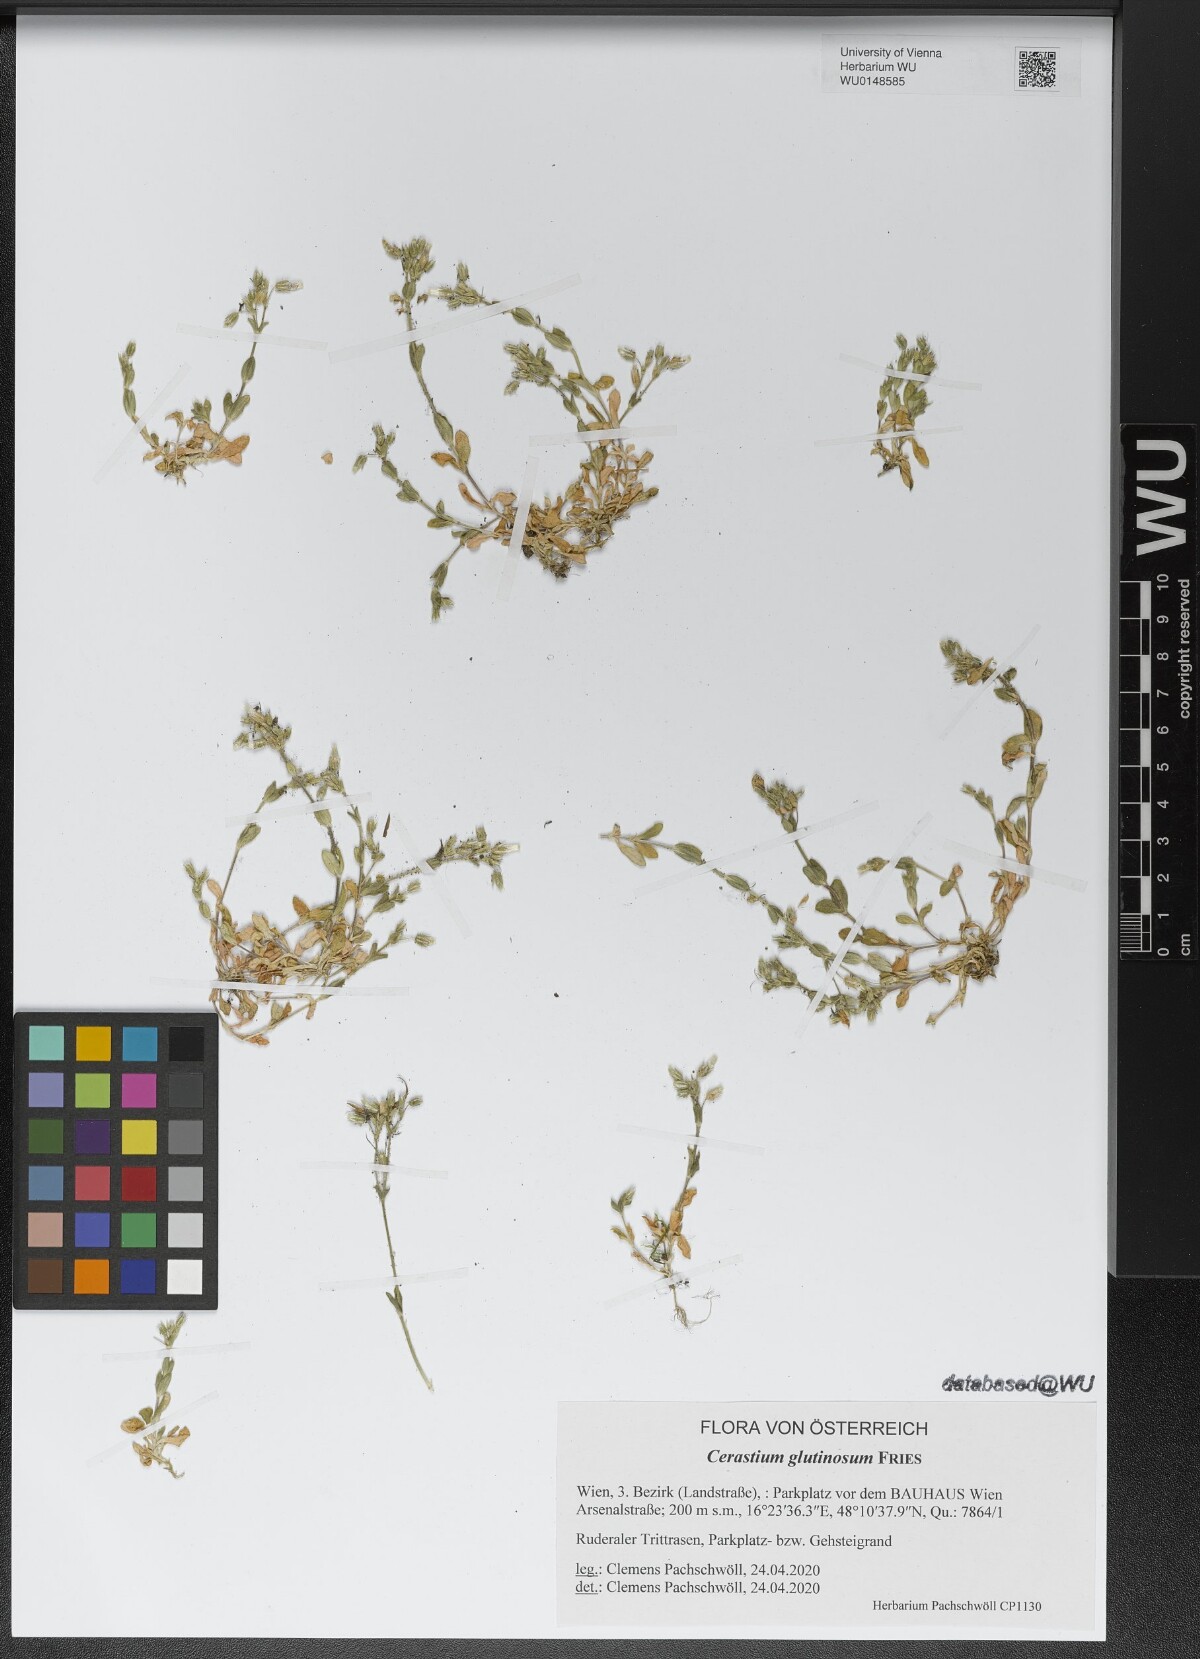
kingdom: Plantae
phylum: Tracheophyta
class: Magnoliopsida
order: Caryophyllales
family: Caryophyllaceae
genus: Cerastium
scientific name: Cerastium glutinosum
